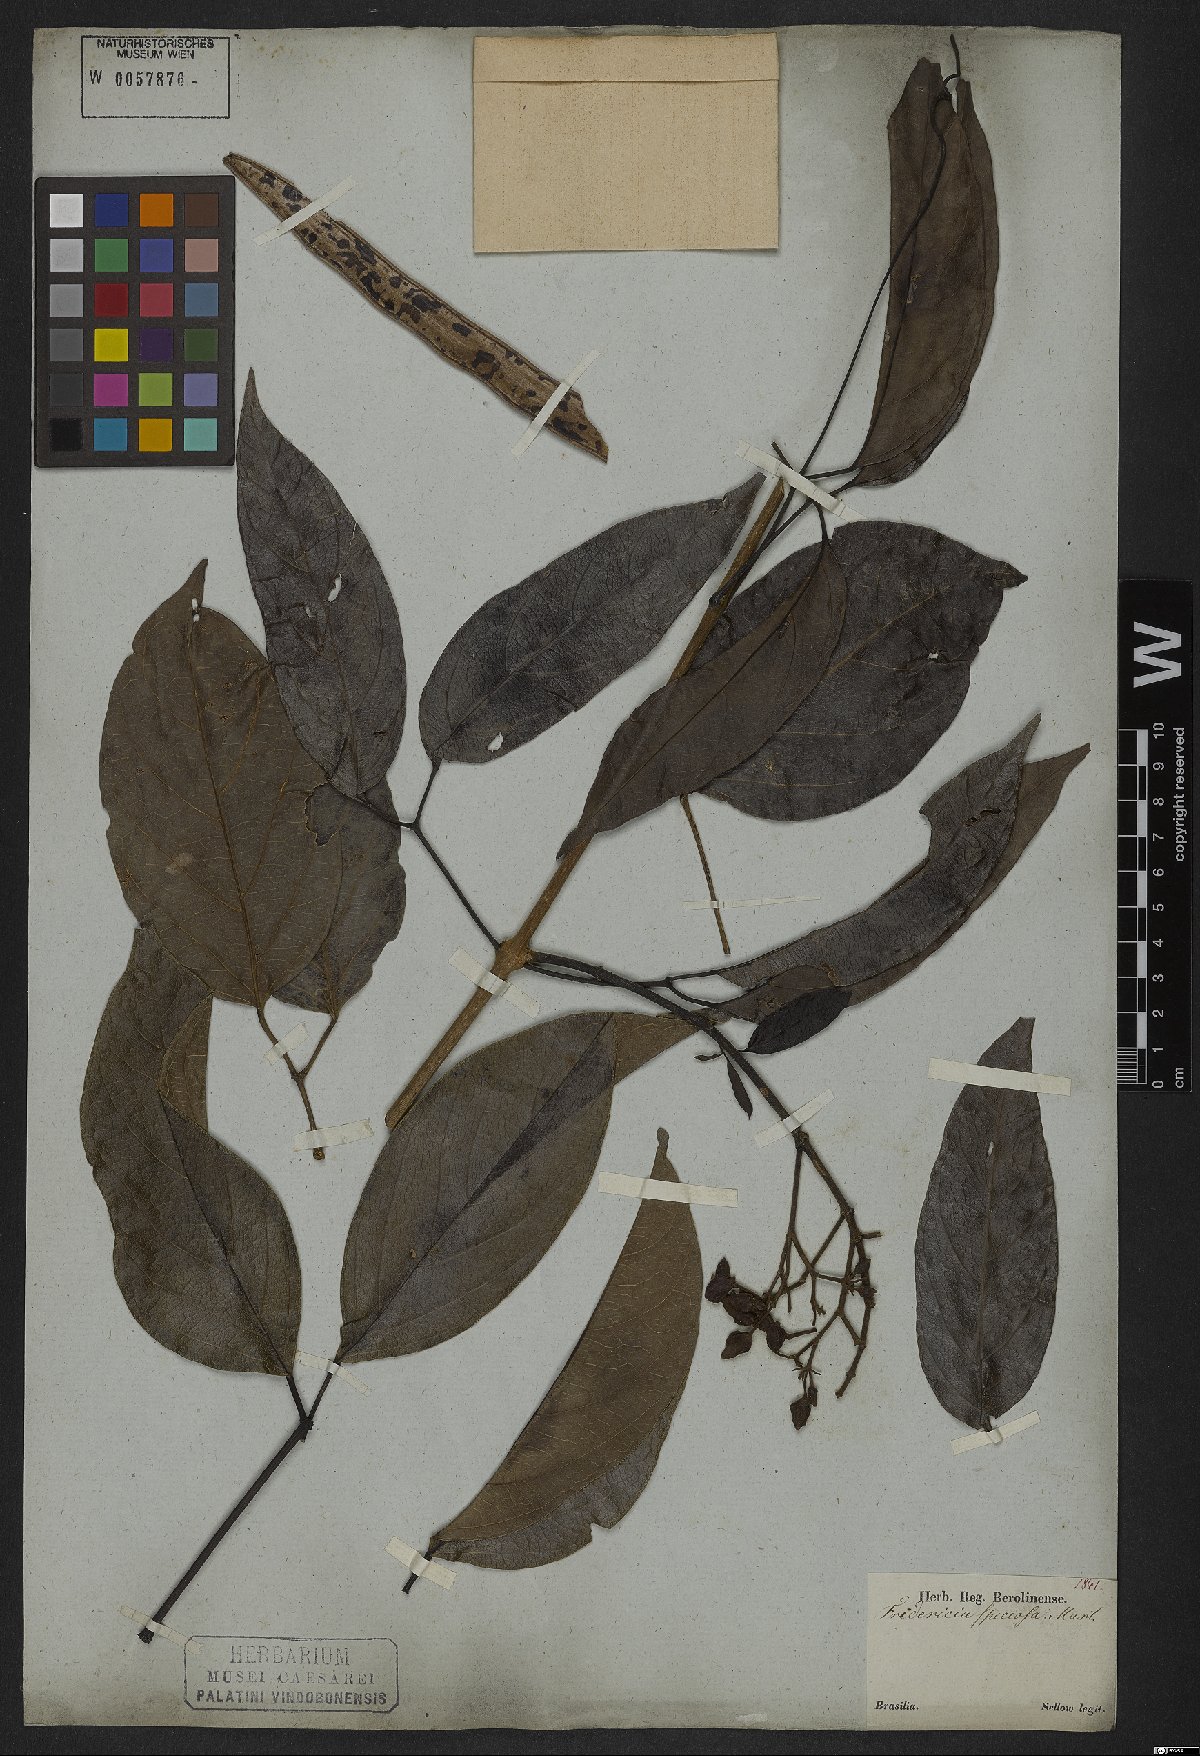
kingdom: Plantae
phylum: Tracheophyta
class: Magnoliopsida
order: Lamiales
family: Bignoniaceae
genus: Fridericia
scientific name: Fridericia speciosa
